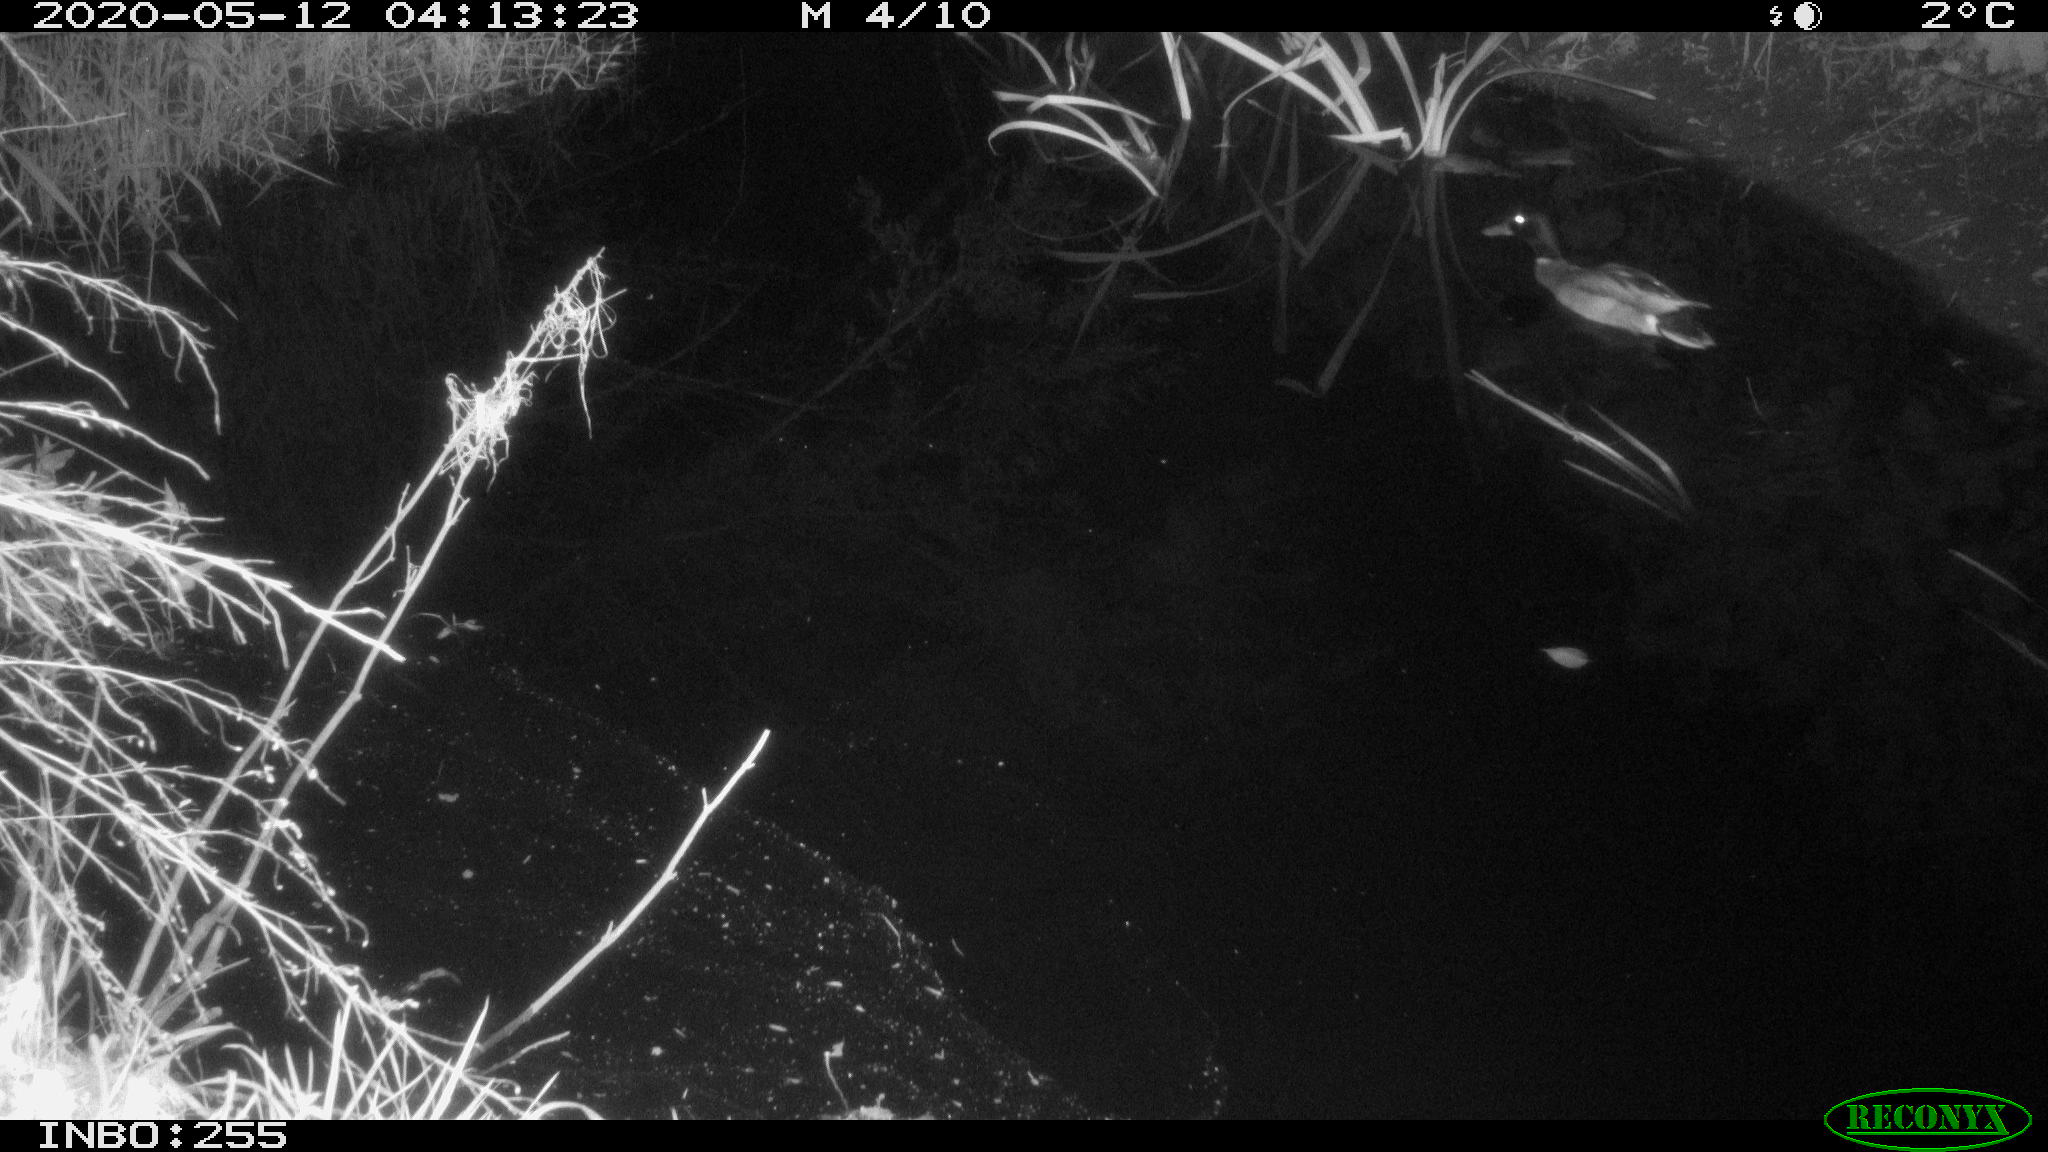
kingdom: Animalia
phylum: Chordata
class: Aves
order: Anseriformes
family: Anatidae
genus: Anas
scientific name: Anas platyrhynchos
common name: Mallard
